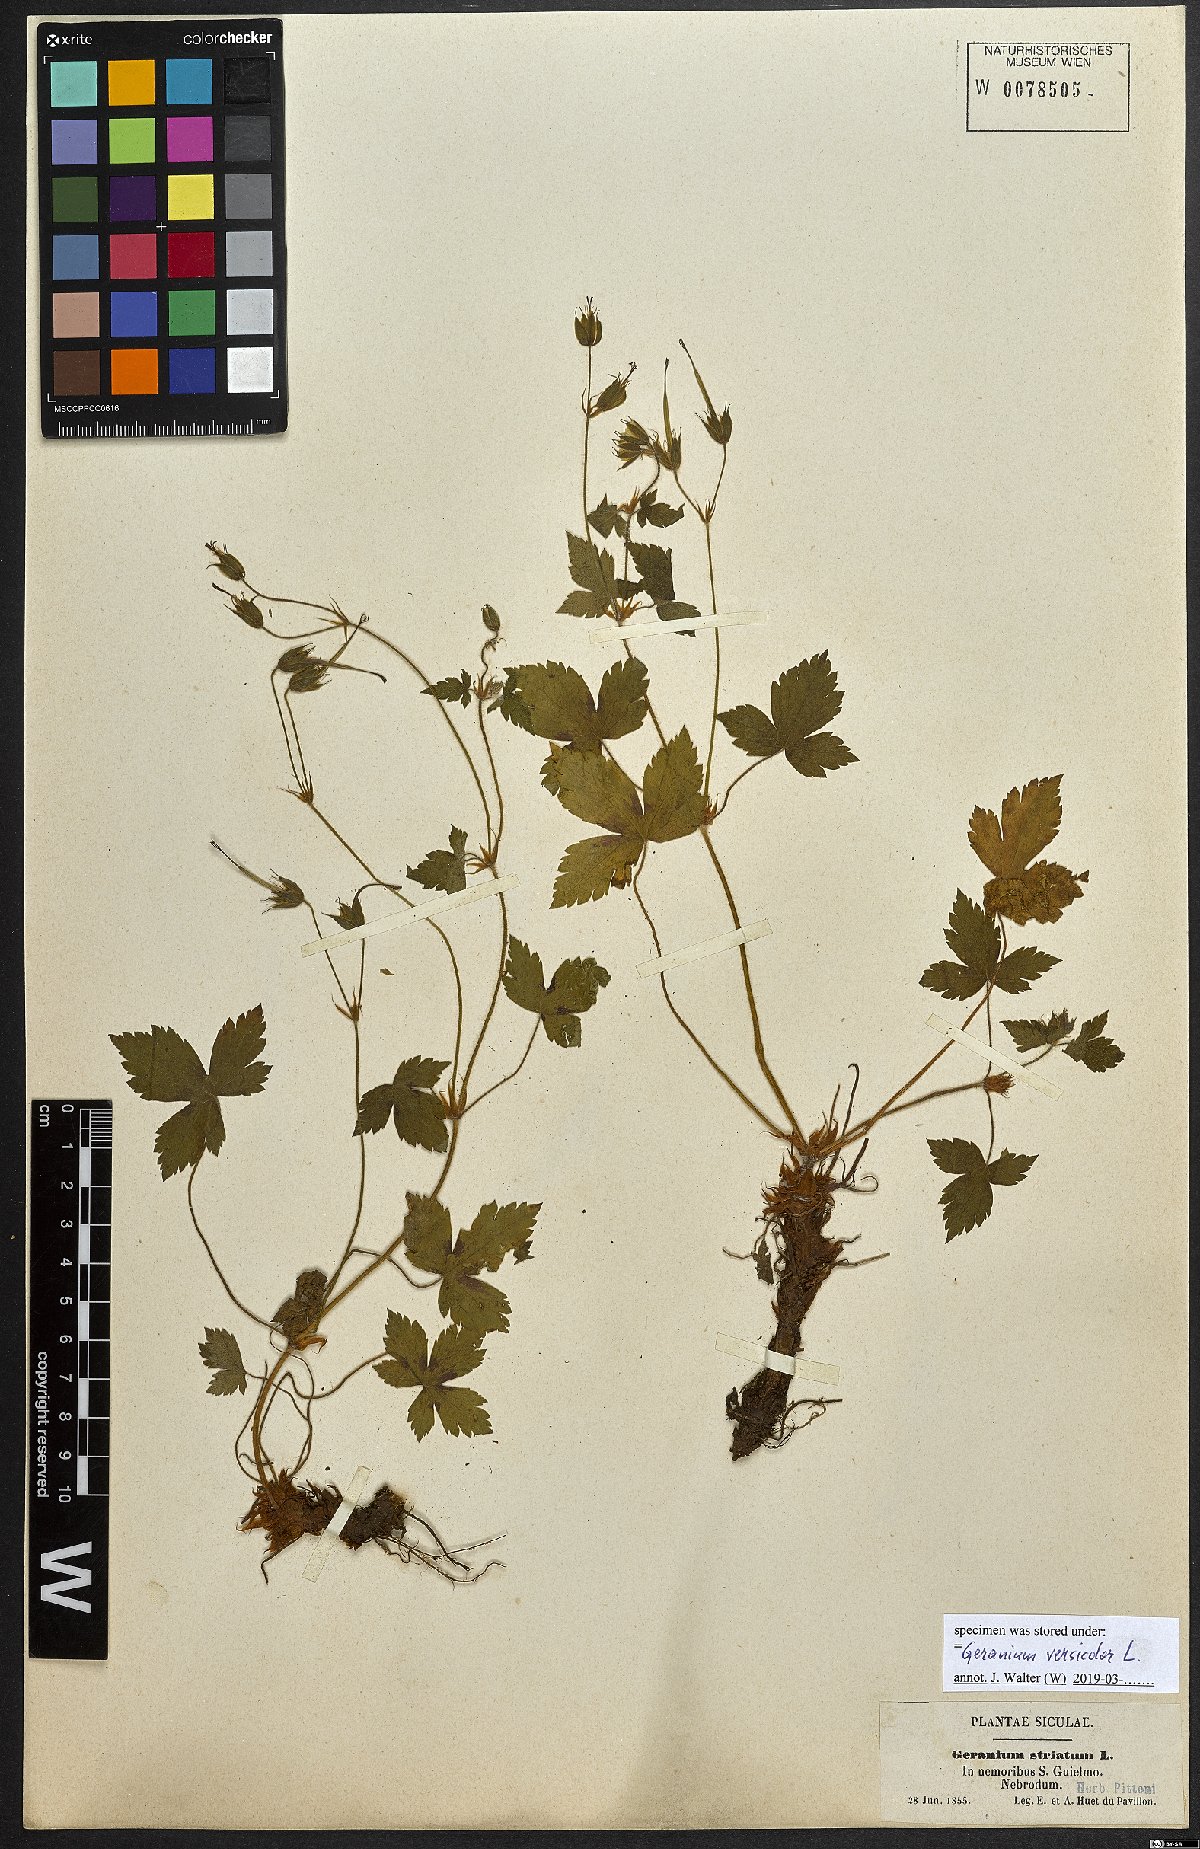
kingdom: Plantae
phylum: Tracheophyta
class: Magnoliopsida
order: Geraniales
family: Geraniaceae
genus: Geranium
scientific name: Geranium versicolor
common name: Pencilled crane's-bill
